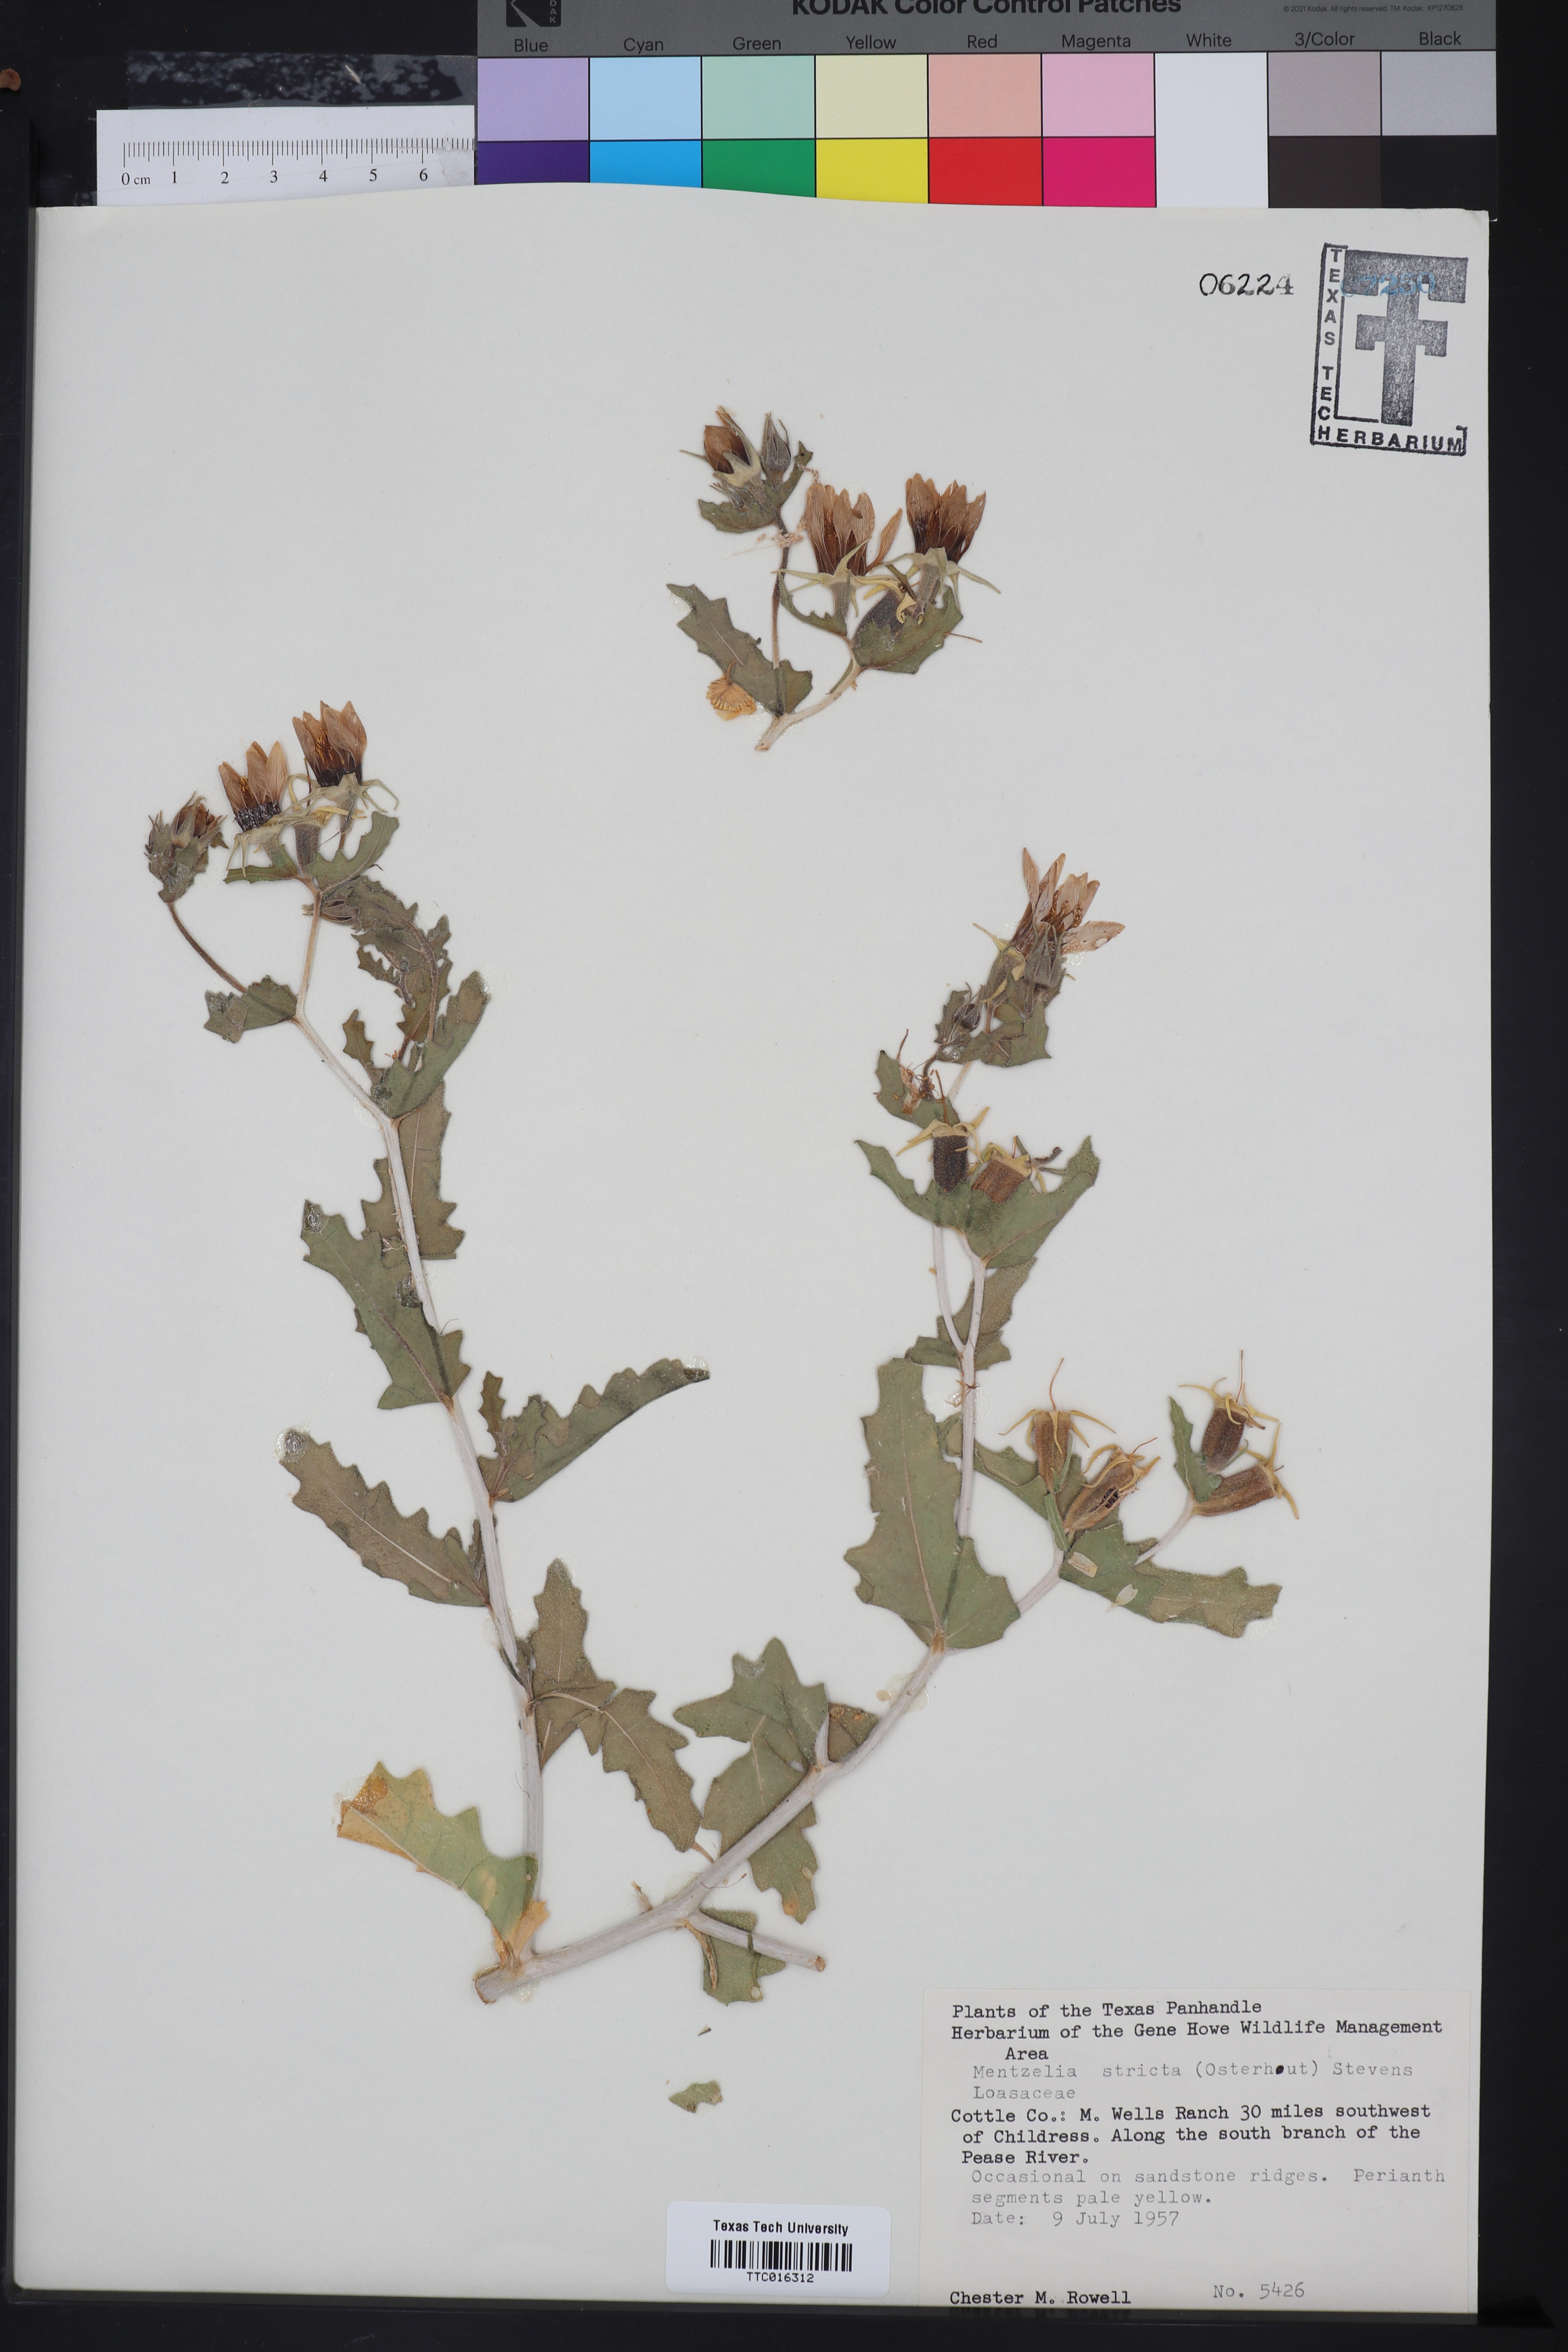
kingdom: Plantae
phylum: Tracheophyta
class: Magnoliopsida
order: Cornales
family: Loasaceae
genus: Mentzelia
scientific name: Mentzelia nuda
